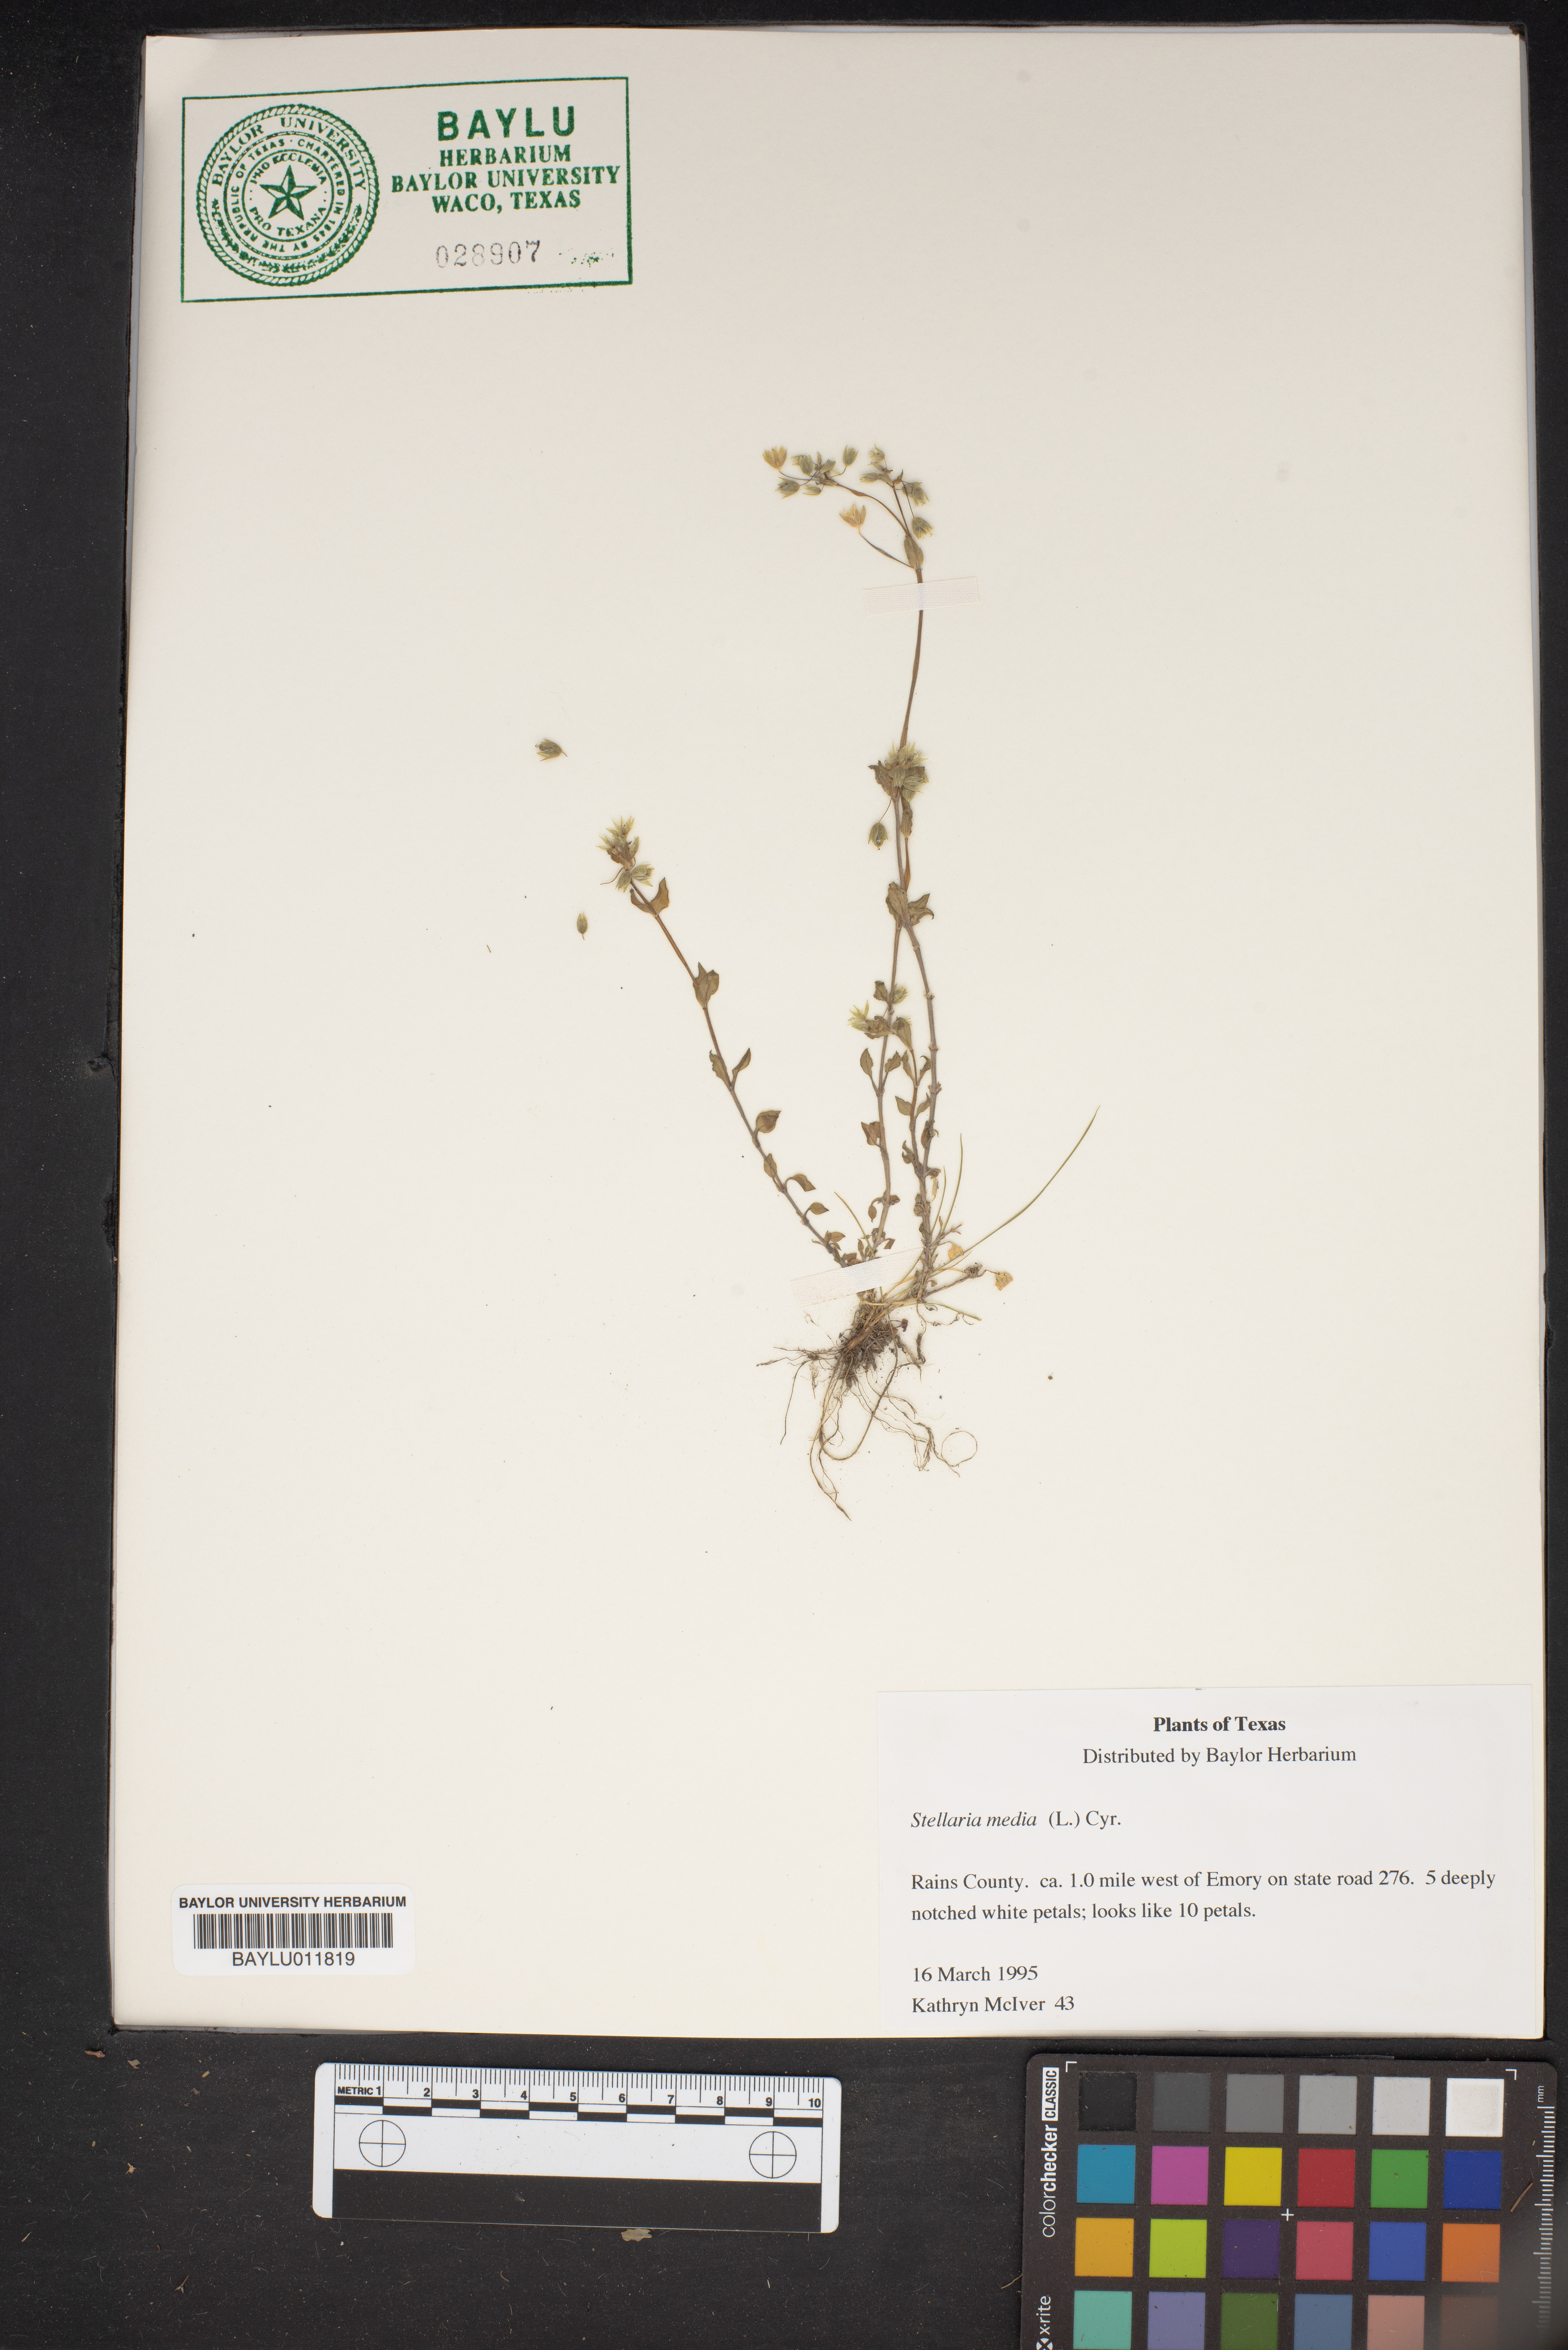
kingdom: Plantae
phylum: Tracheophyta
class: Magnoliopsida
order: Caryophyllales
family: Caryophyllaceae
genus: Stellaria
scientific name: Stellaria media
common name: Common chickweed
